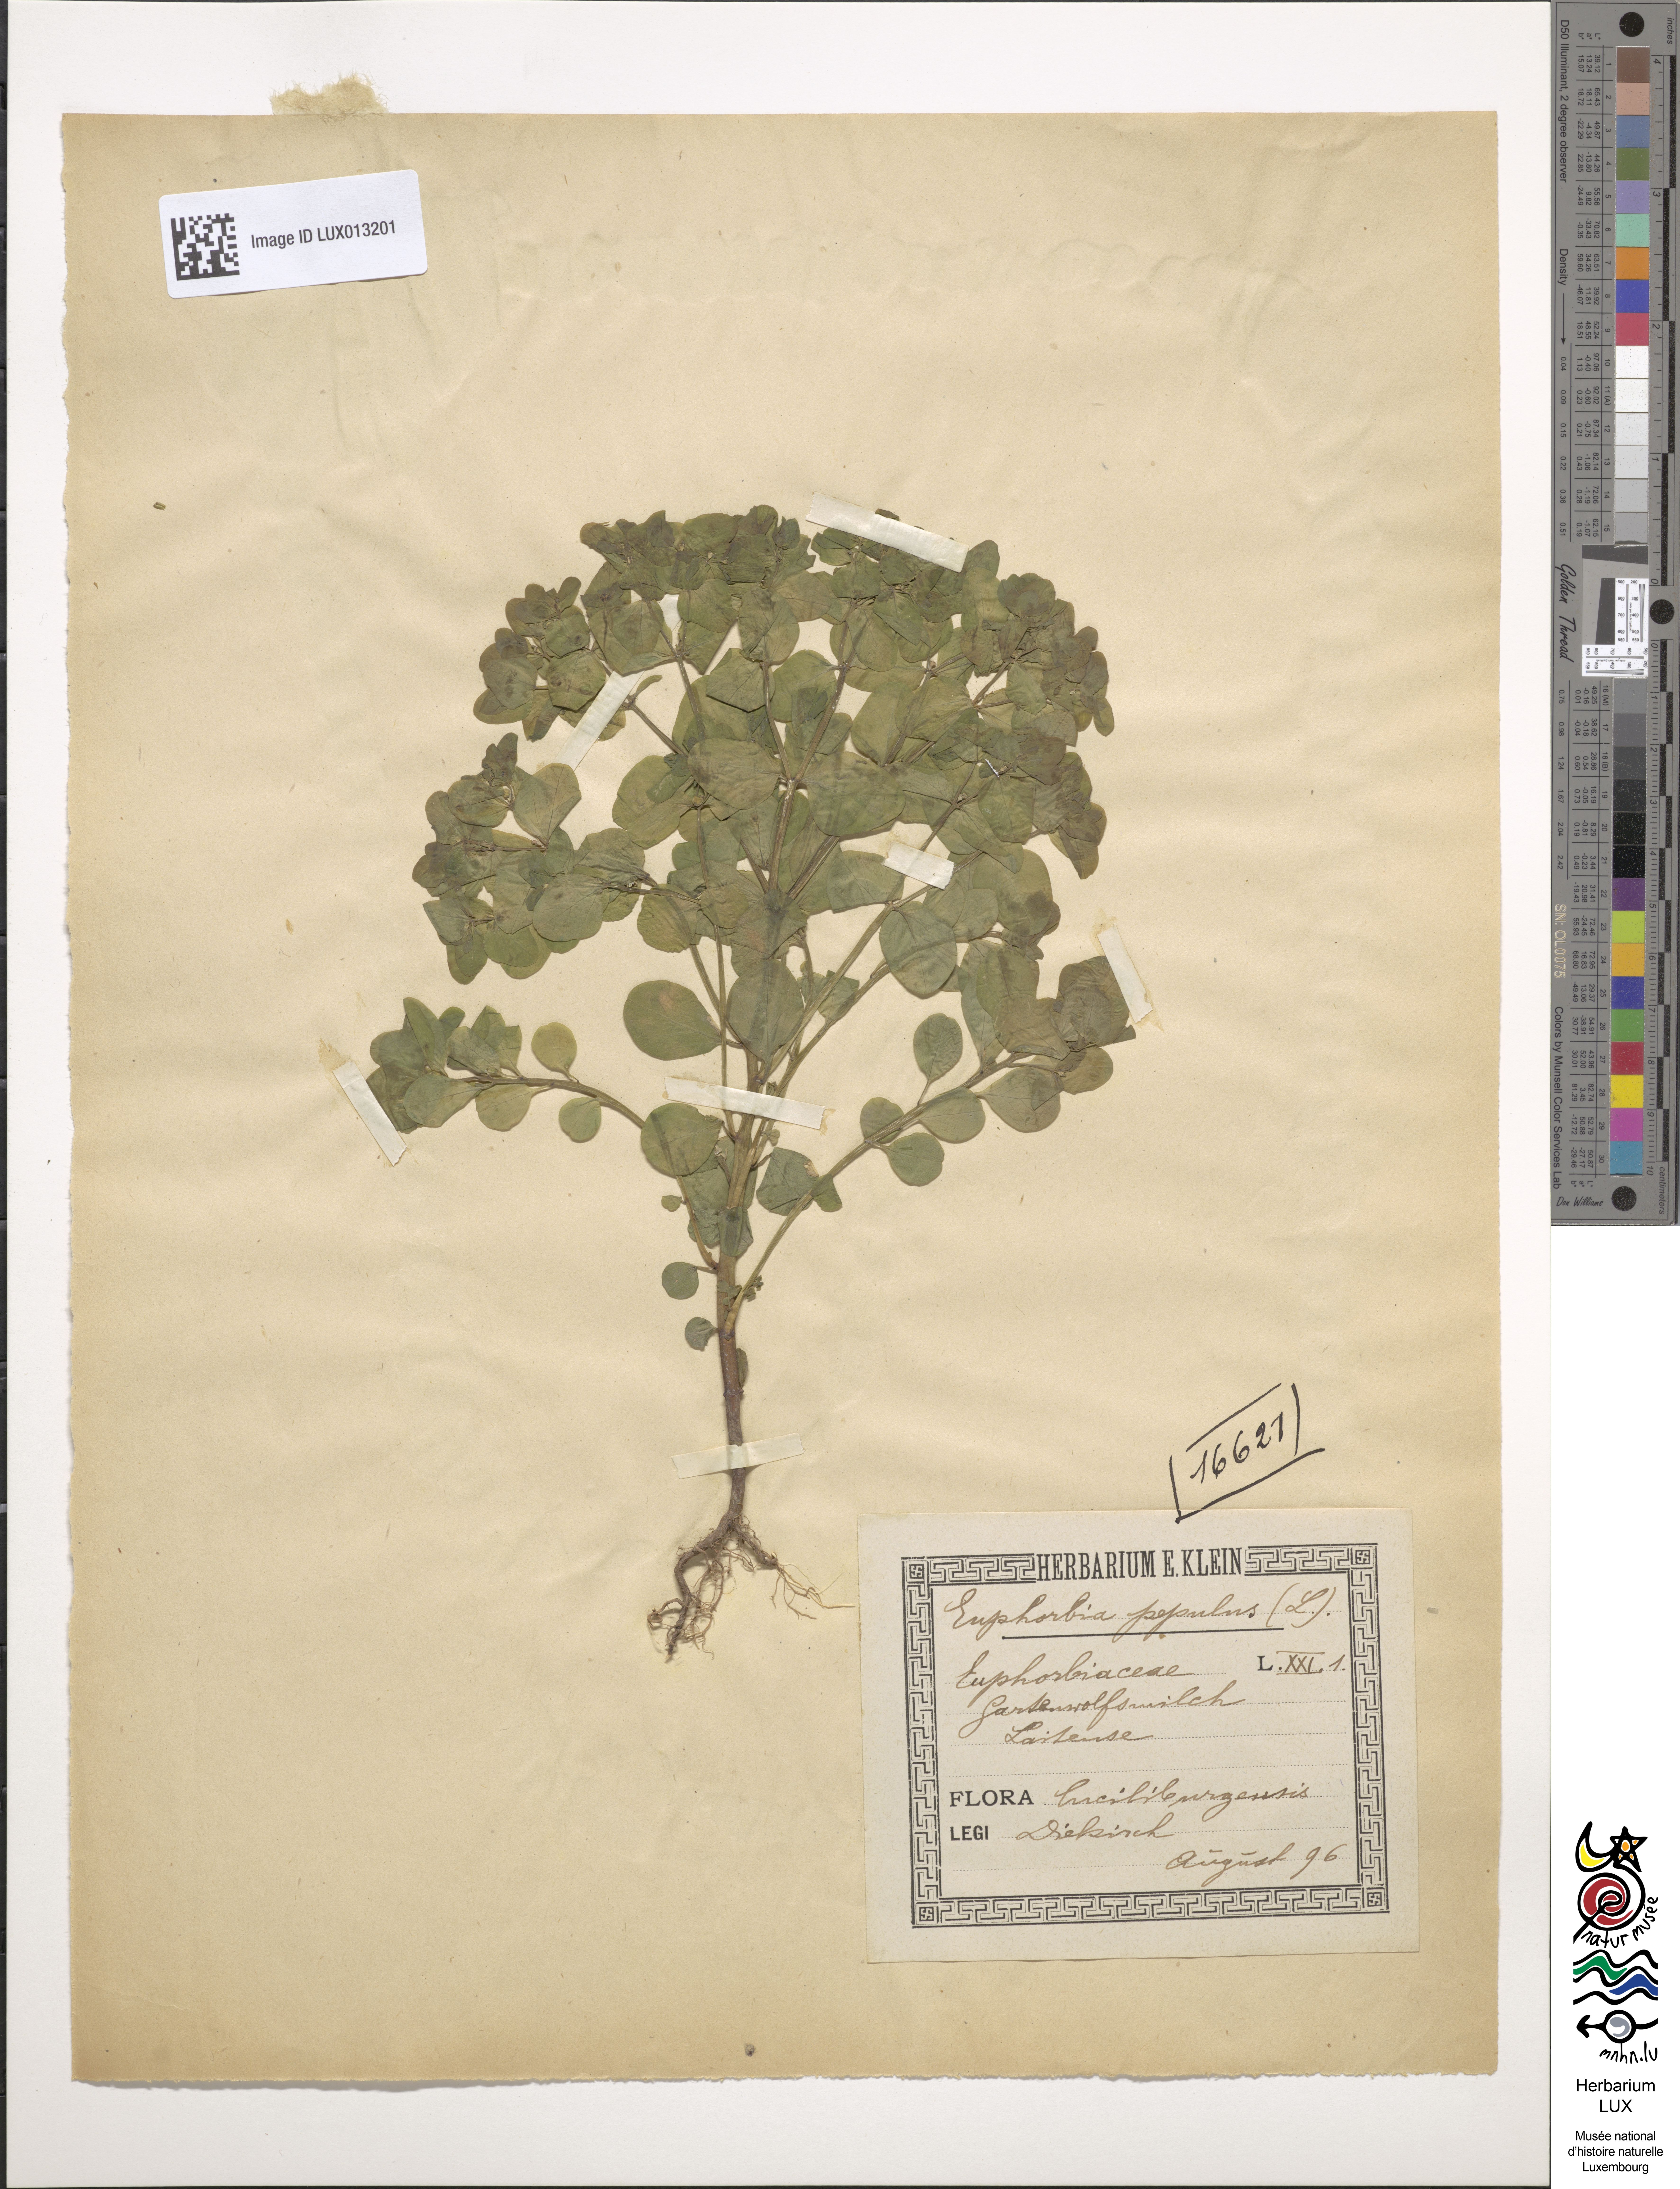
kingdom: Plantae
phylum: Tracheophyta
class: Magnoliopsida
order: Malpighiales
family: Euphorbiaceae
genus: Euphorbia
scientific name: Euphorbia peplus
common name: Petty spurge
